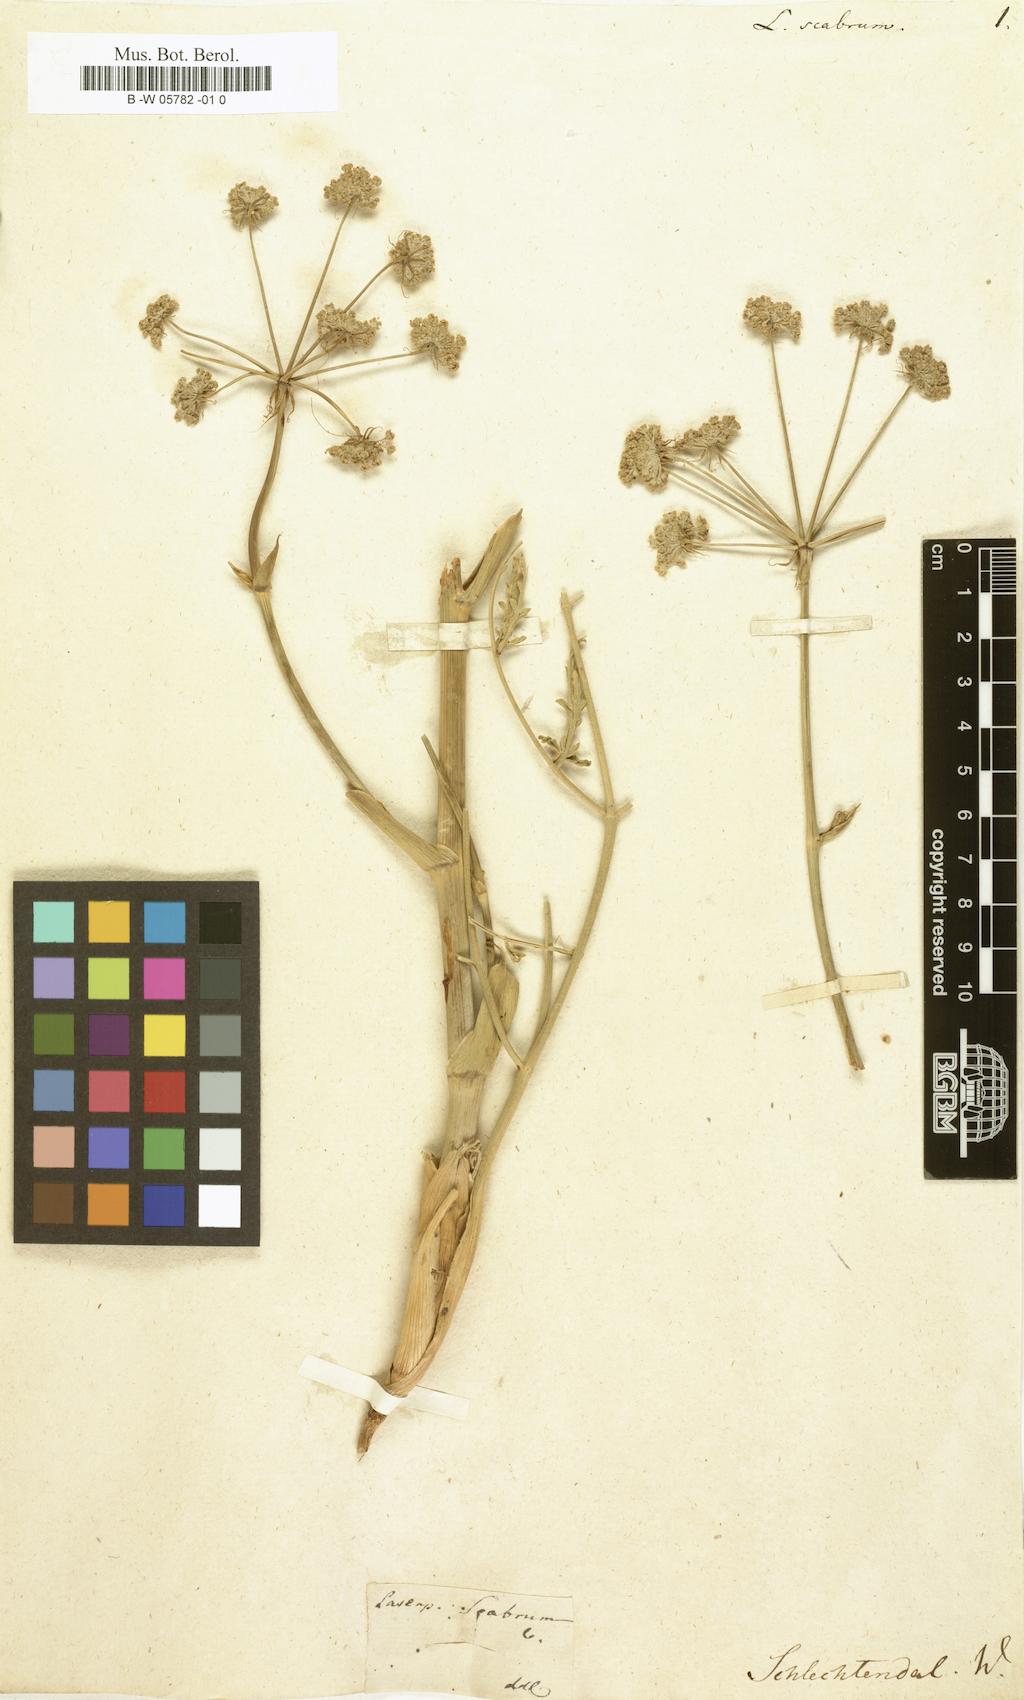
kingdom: Plantae
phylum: Tracheophyta
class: Magnoliopsida
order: Apiales
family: Apiaceae
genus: Thapsia
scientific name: Thapsia scabra
